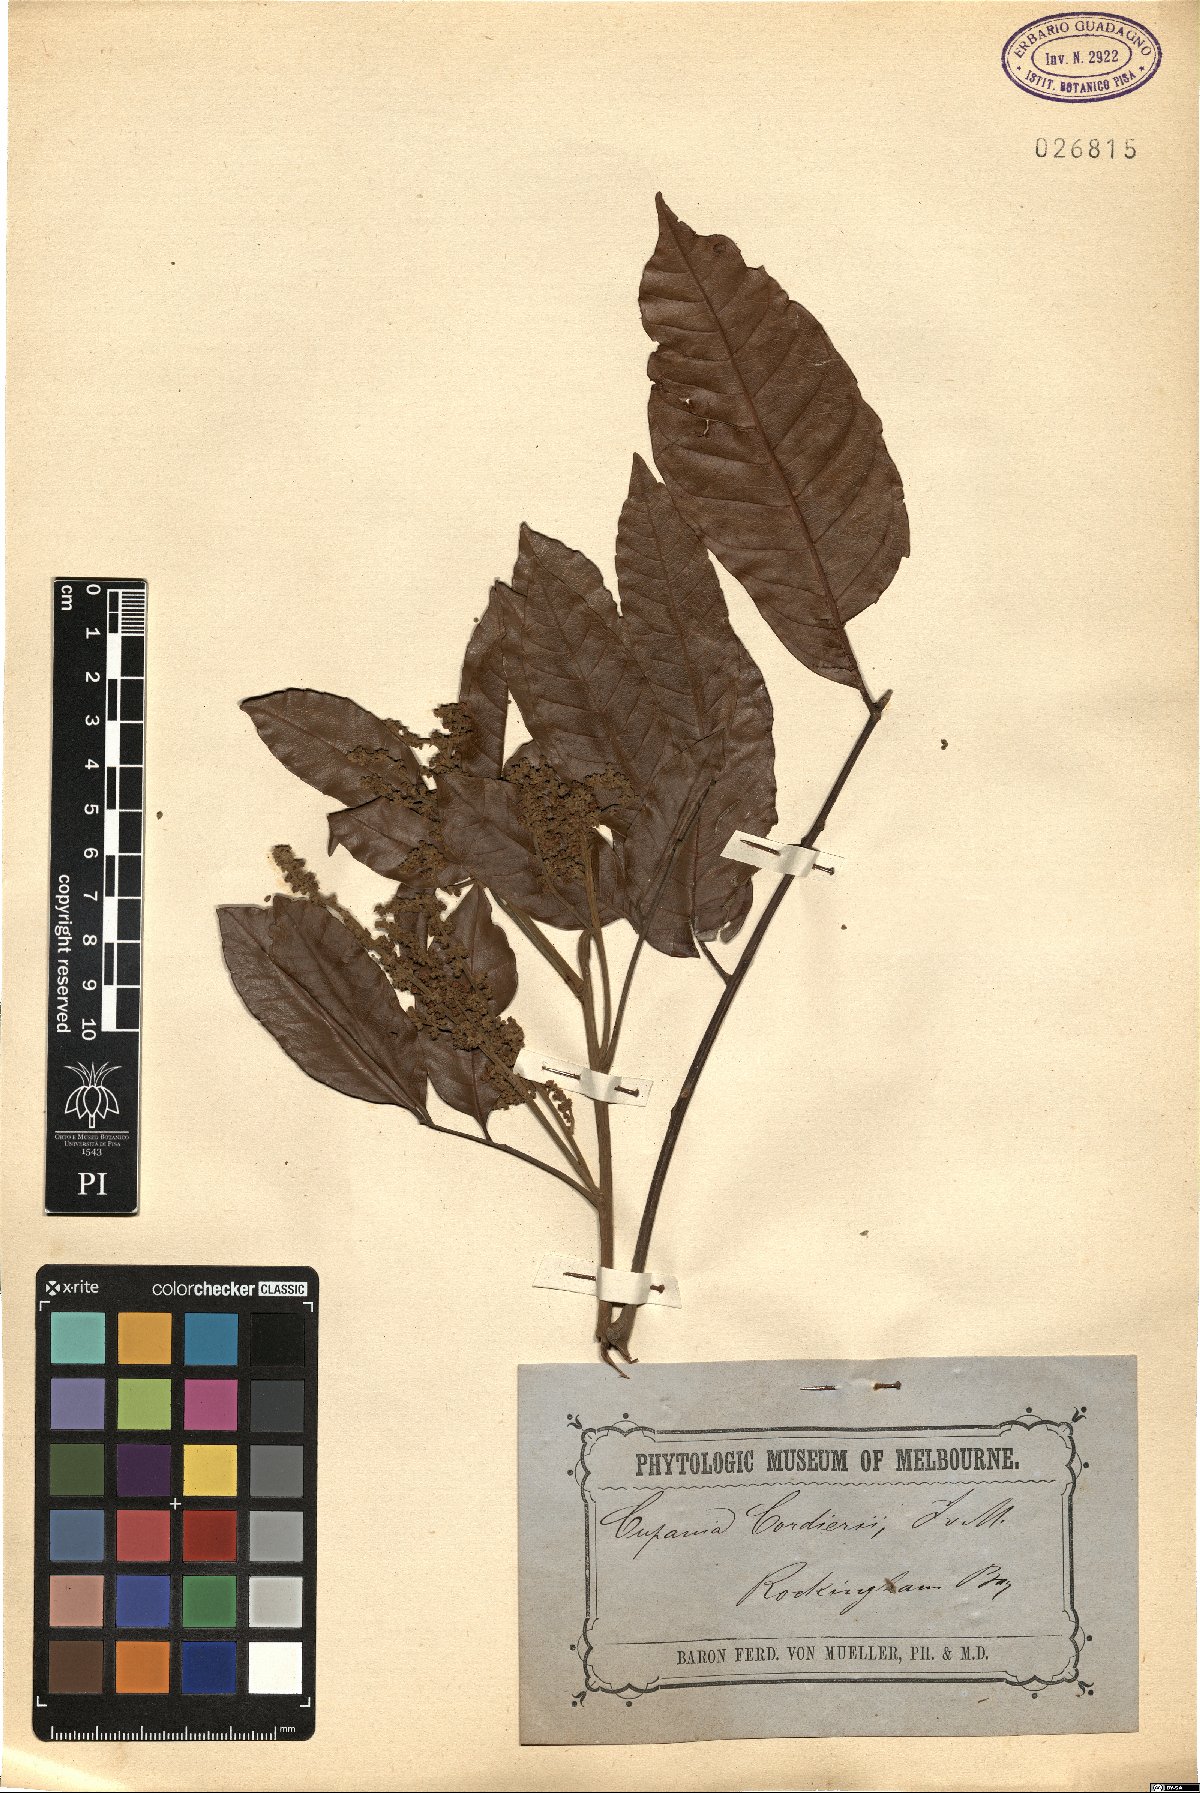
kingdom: Plantae
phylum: Tracheophyta
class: Magnoliopsida
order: Sapindales
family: Sapindaceae
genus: Synima
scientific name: Synima cordieri
